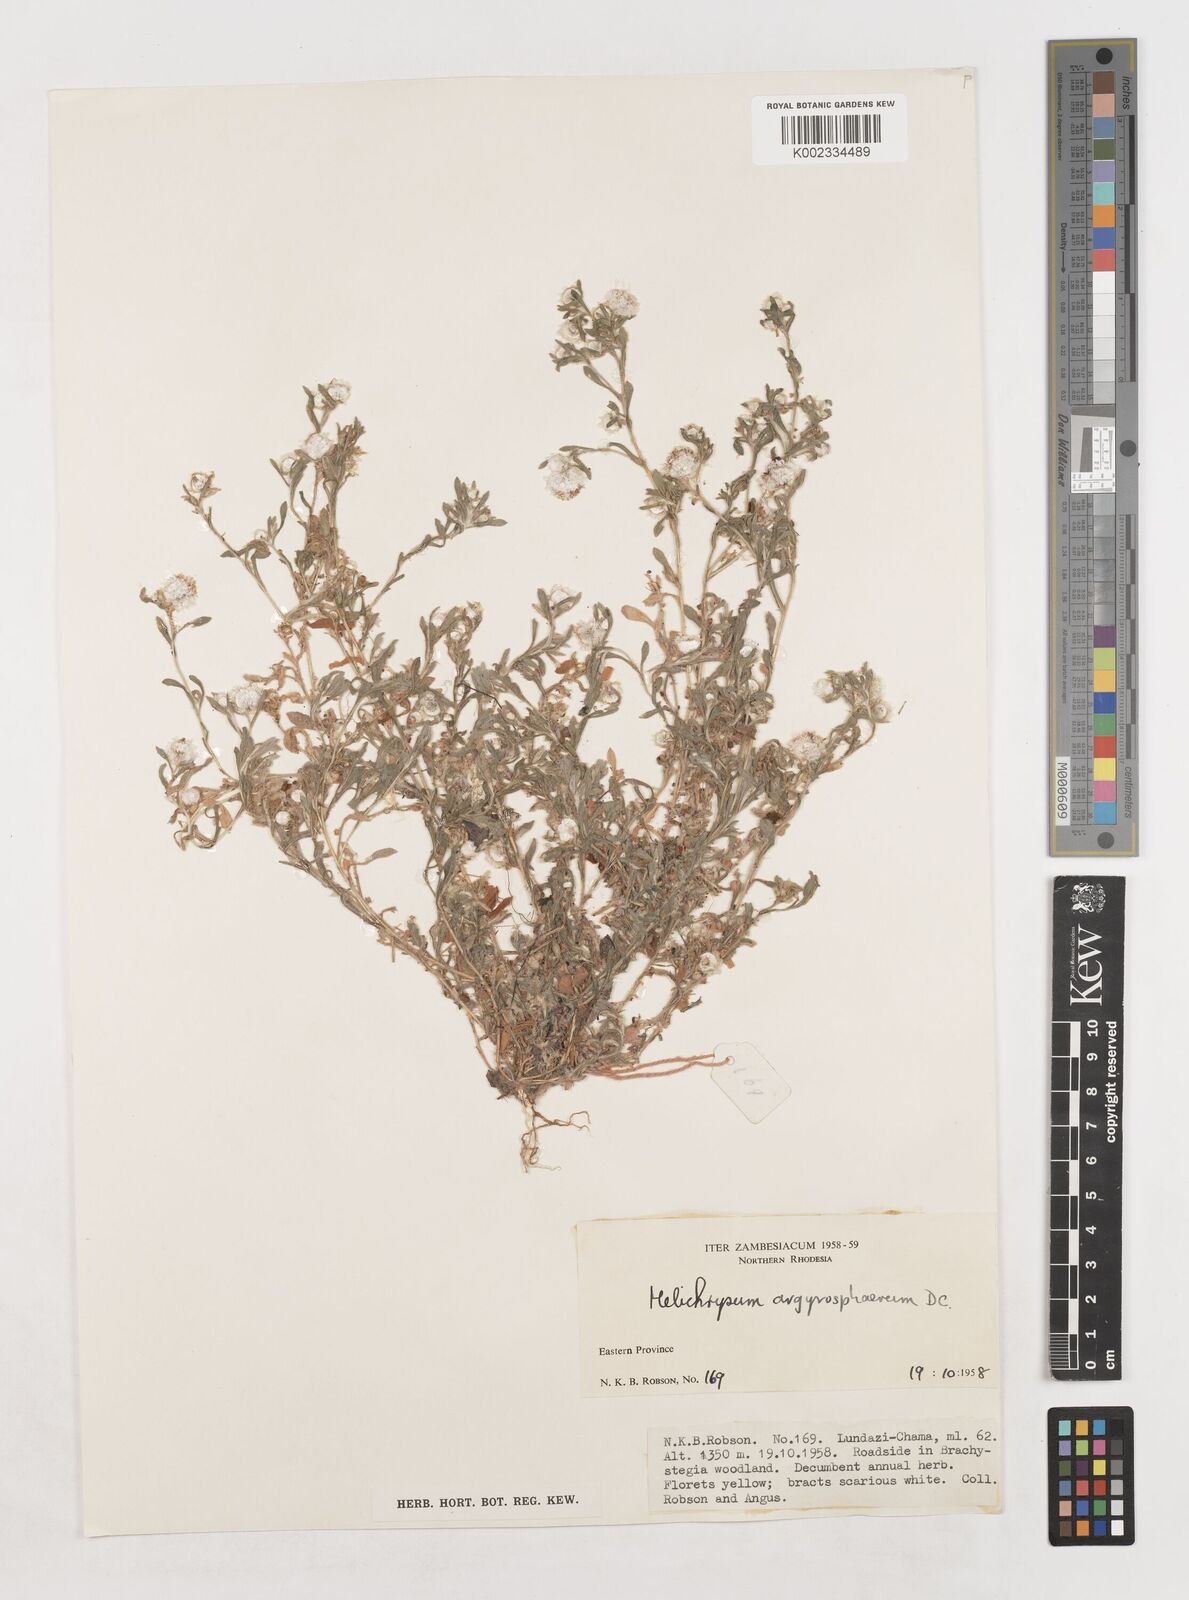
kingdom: Plantae
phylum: Tracheophyta
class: Magnoliopsida
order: Asterales
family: Asteraceae
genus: Helichrysum
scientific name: Helichrysum argyrosphaerum
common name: Wild everlasting
